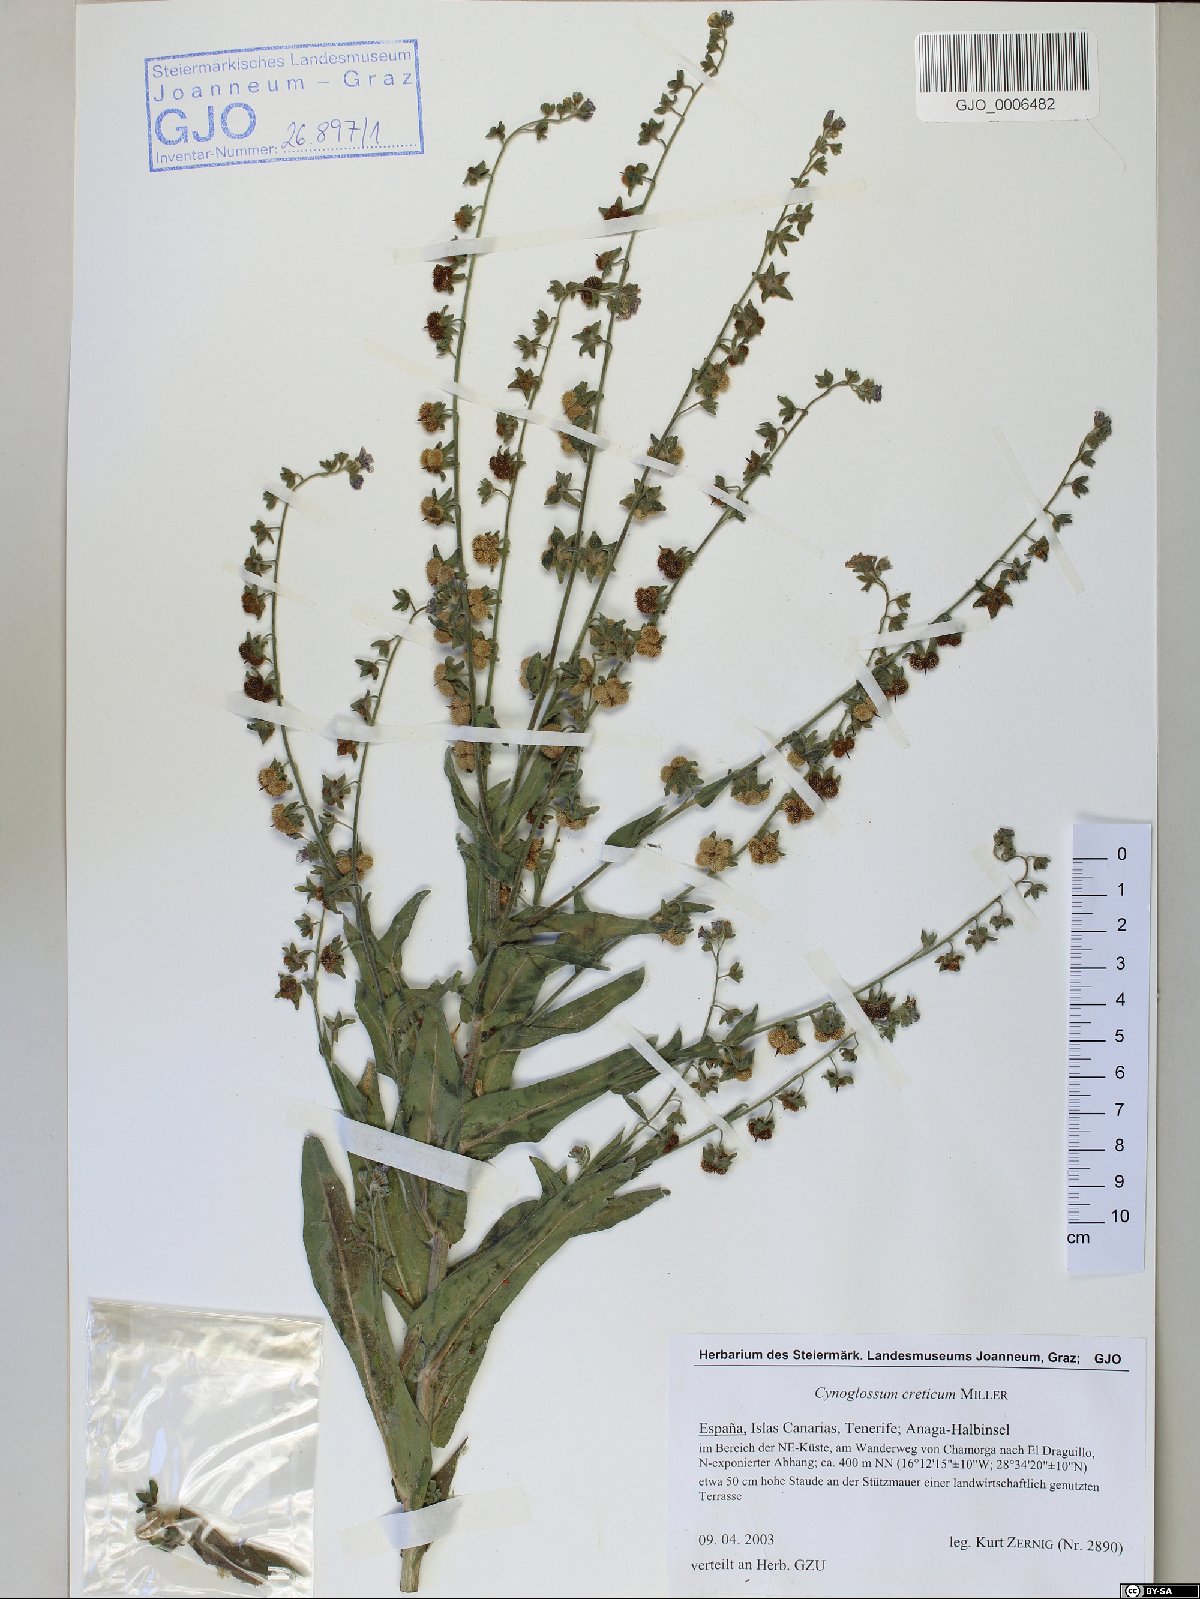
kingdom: Plantae
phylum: Tracheophyta
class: Magnoliopsida
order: Boraginales
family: Boraginaceae
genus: Cynoglossum
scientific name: Cynoglossum creticum
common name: Blue hound's tongue
